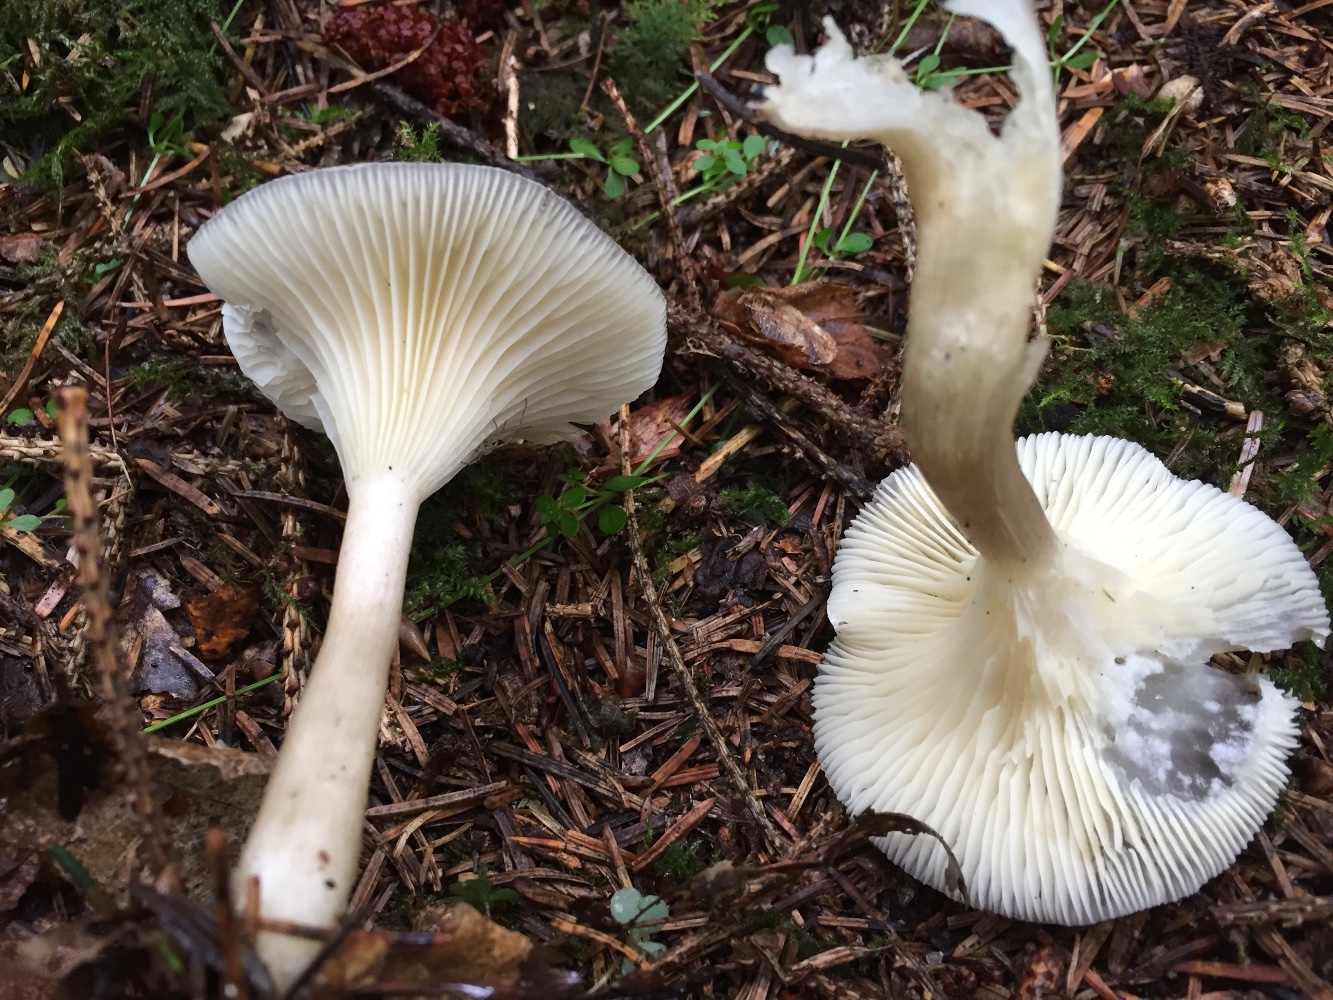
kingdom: Fungi
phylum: Basidiomycota
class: Agaricomycetes
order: Agaricales
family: Hygrophoraceae
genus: Ampulloclitocybe
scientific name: Ampulloclitocybe clavipes
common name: køllefod
